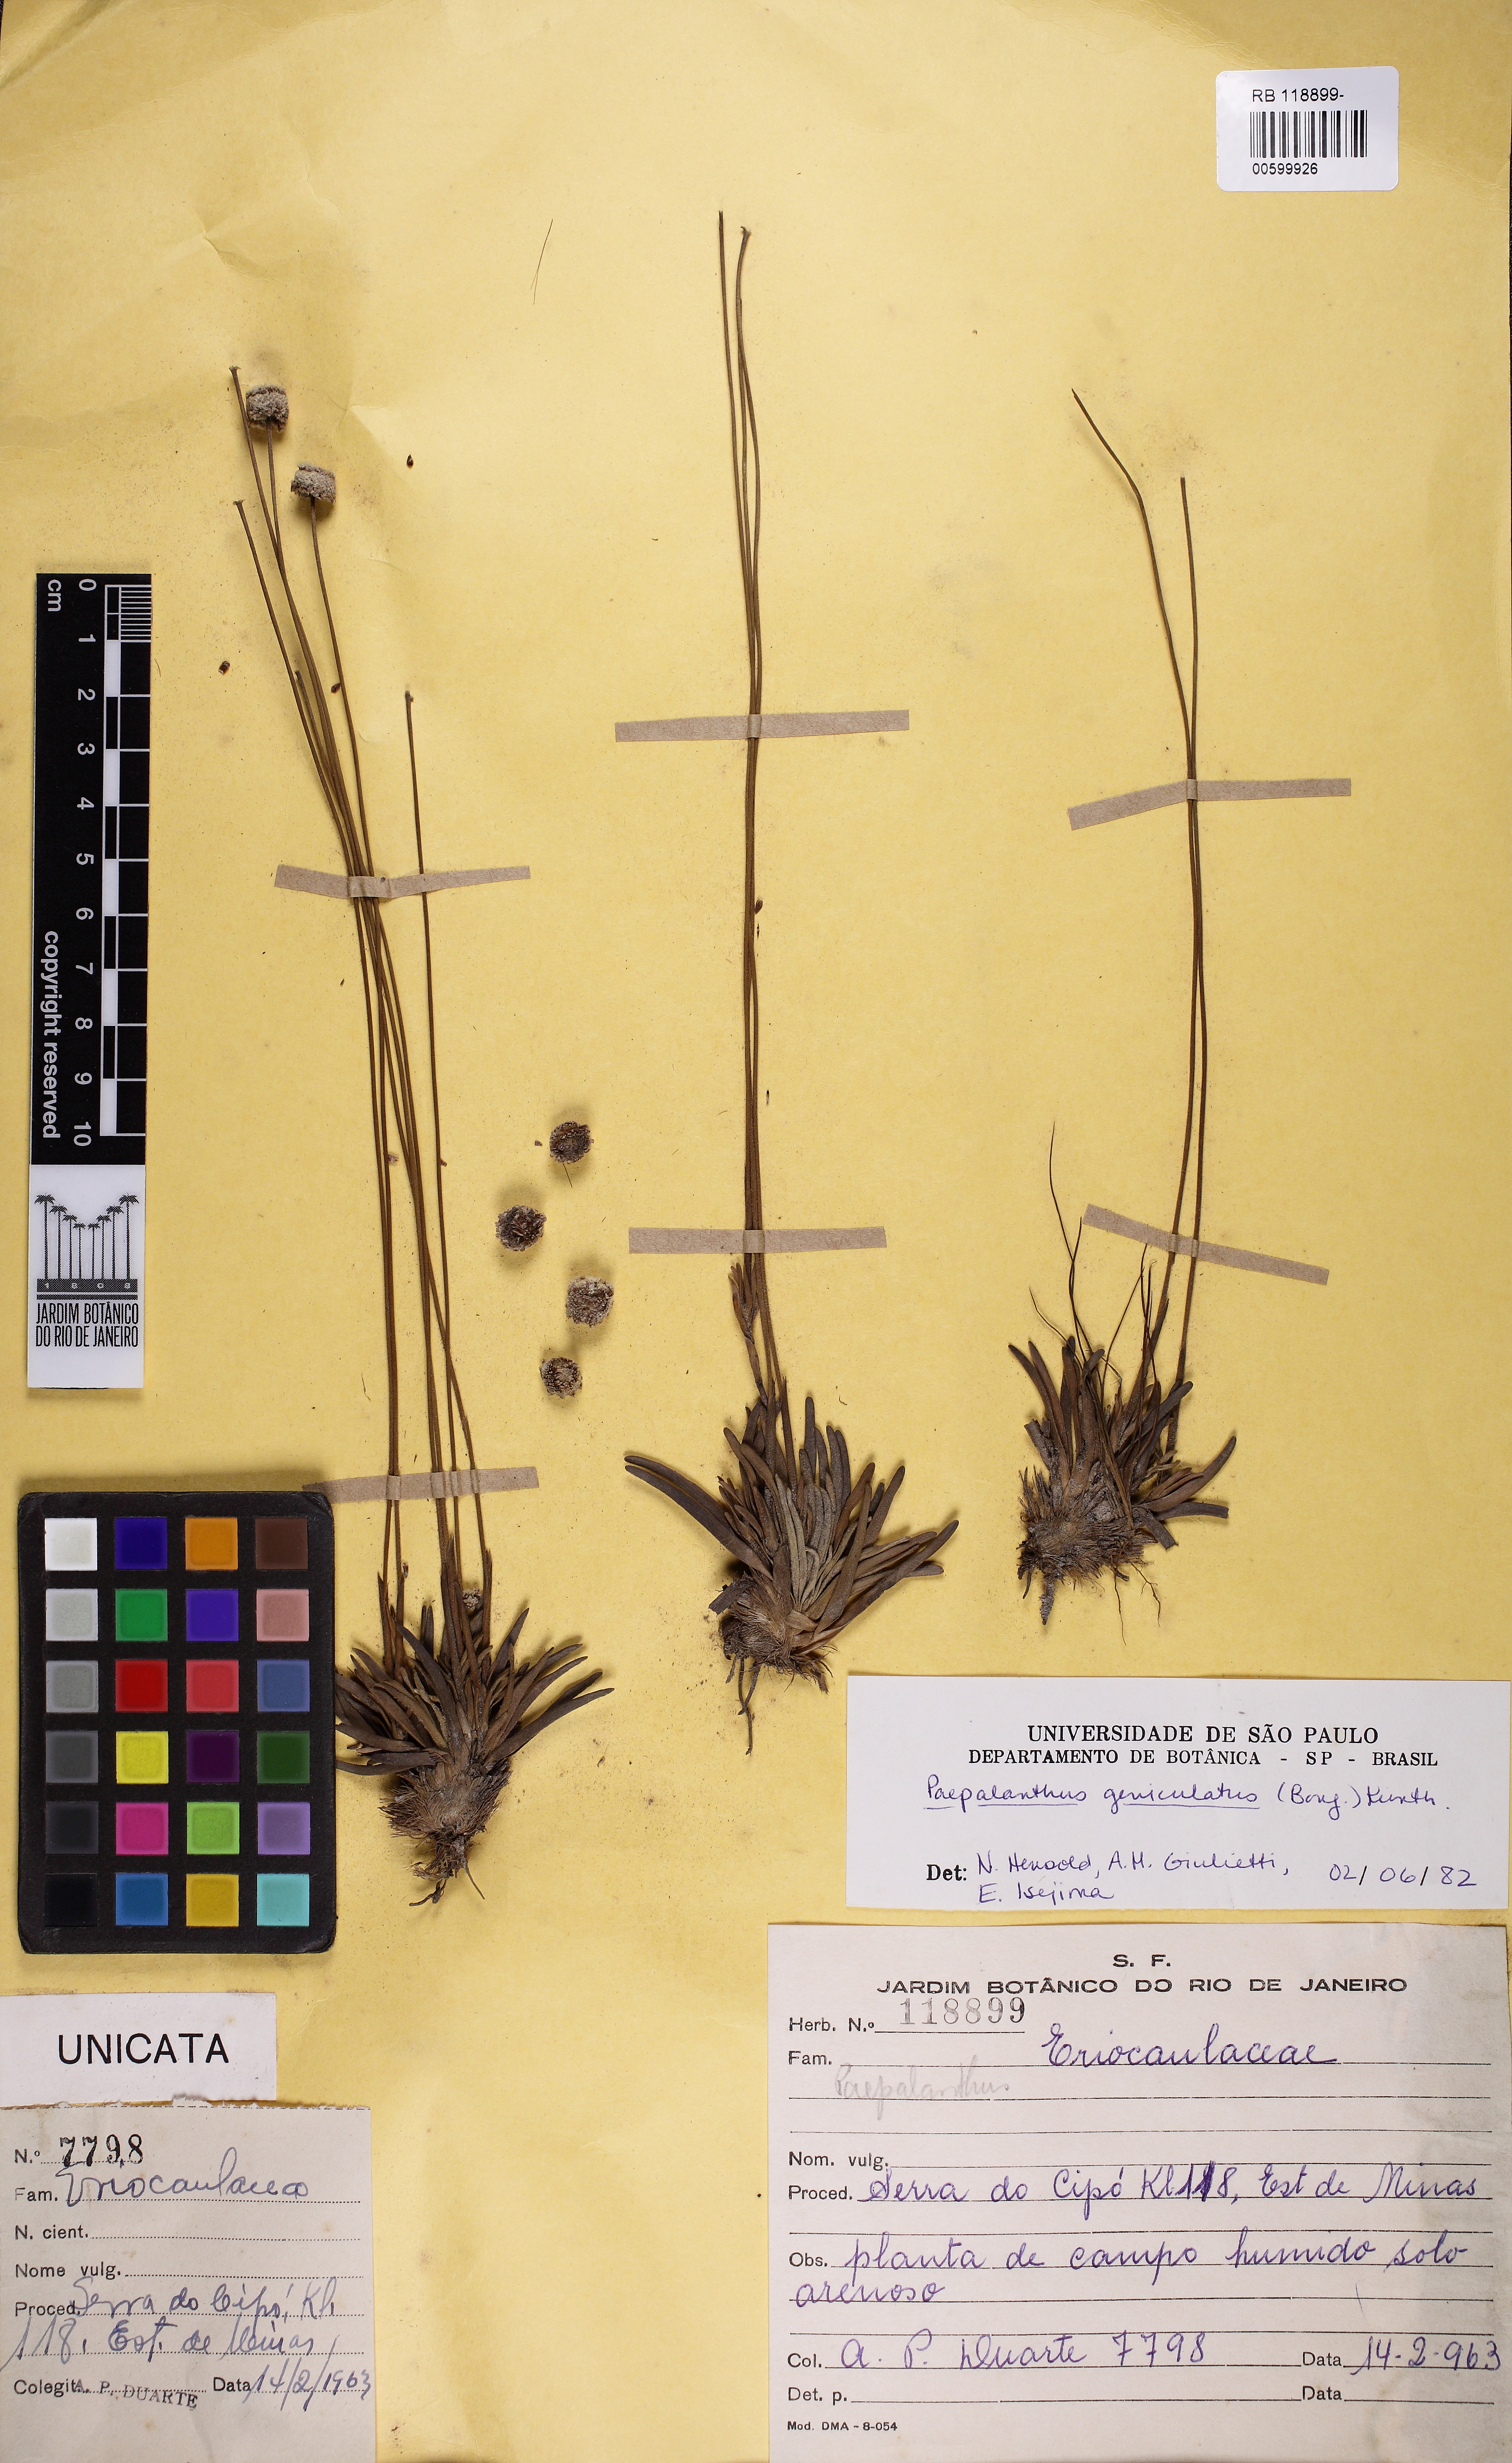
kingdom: Plantae
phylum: Tracheophyta
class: Liliopsida
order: Poales
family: Eriocaulaceae
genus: Paepalanthus
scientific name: Paepalanthus geniculatus
